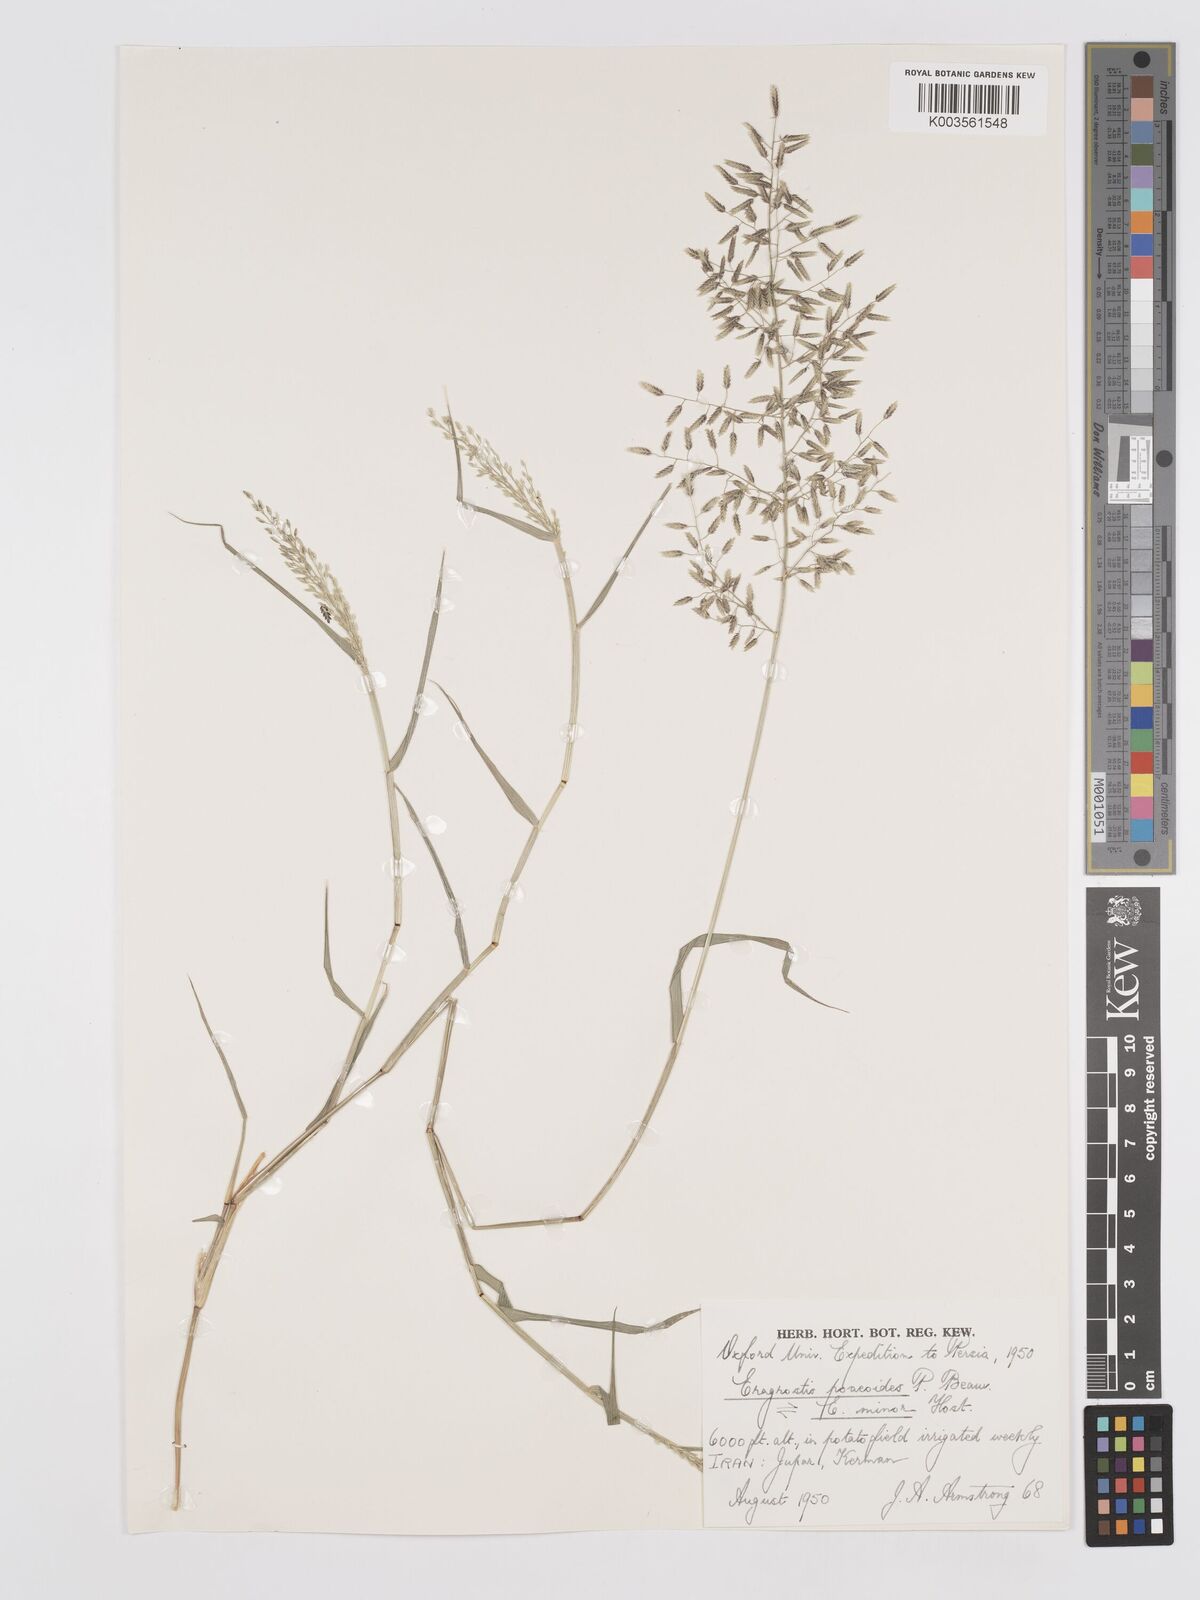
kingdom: Plantae
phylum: Tracheophyta
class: Liliopsida
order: Poales
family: Poaceae
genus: Eragrostis
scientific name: Eragrostis minor
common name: Small love-grass
